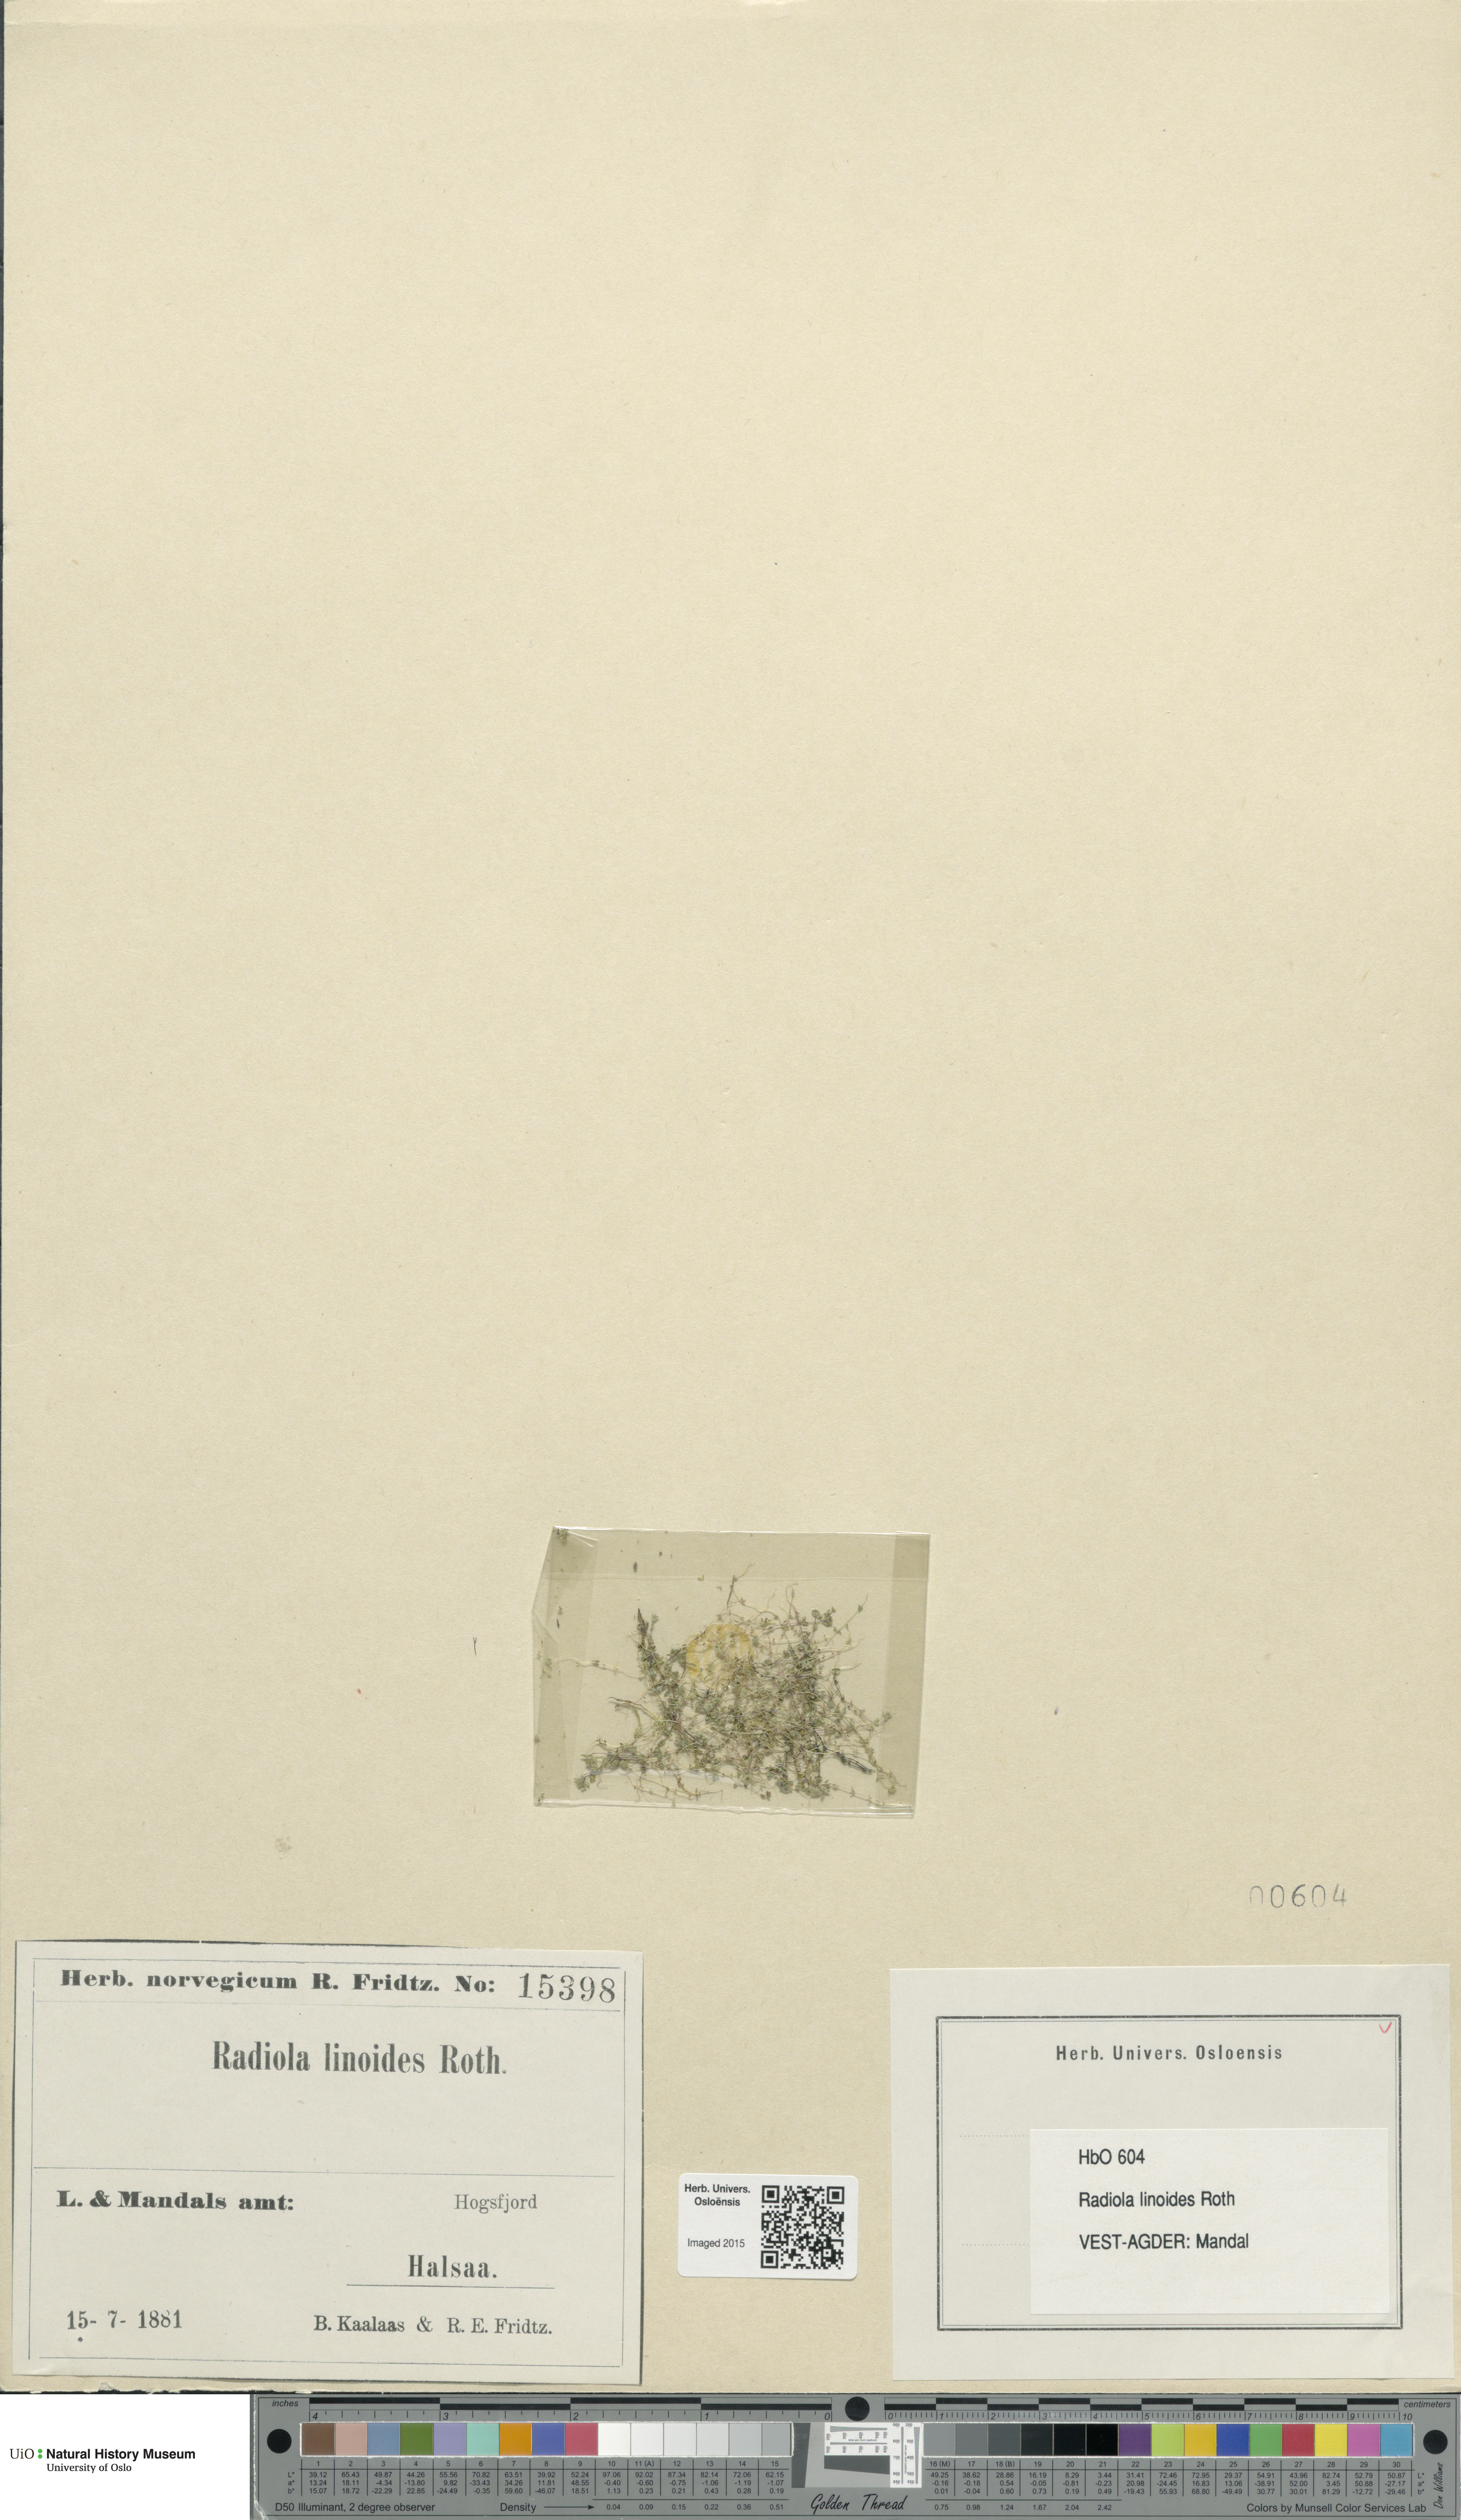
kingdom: Plantae
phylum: Tracheophyta
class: Magnoliopsida
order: Malpighiales
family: Linaceae
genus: Radiola
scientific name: Radiola linoides
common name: Allseed
